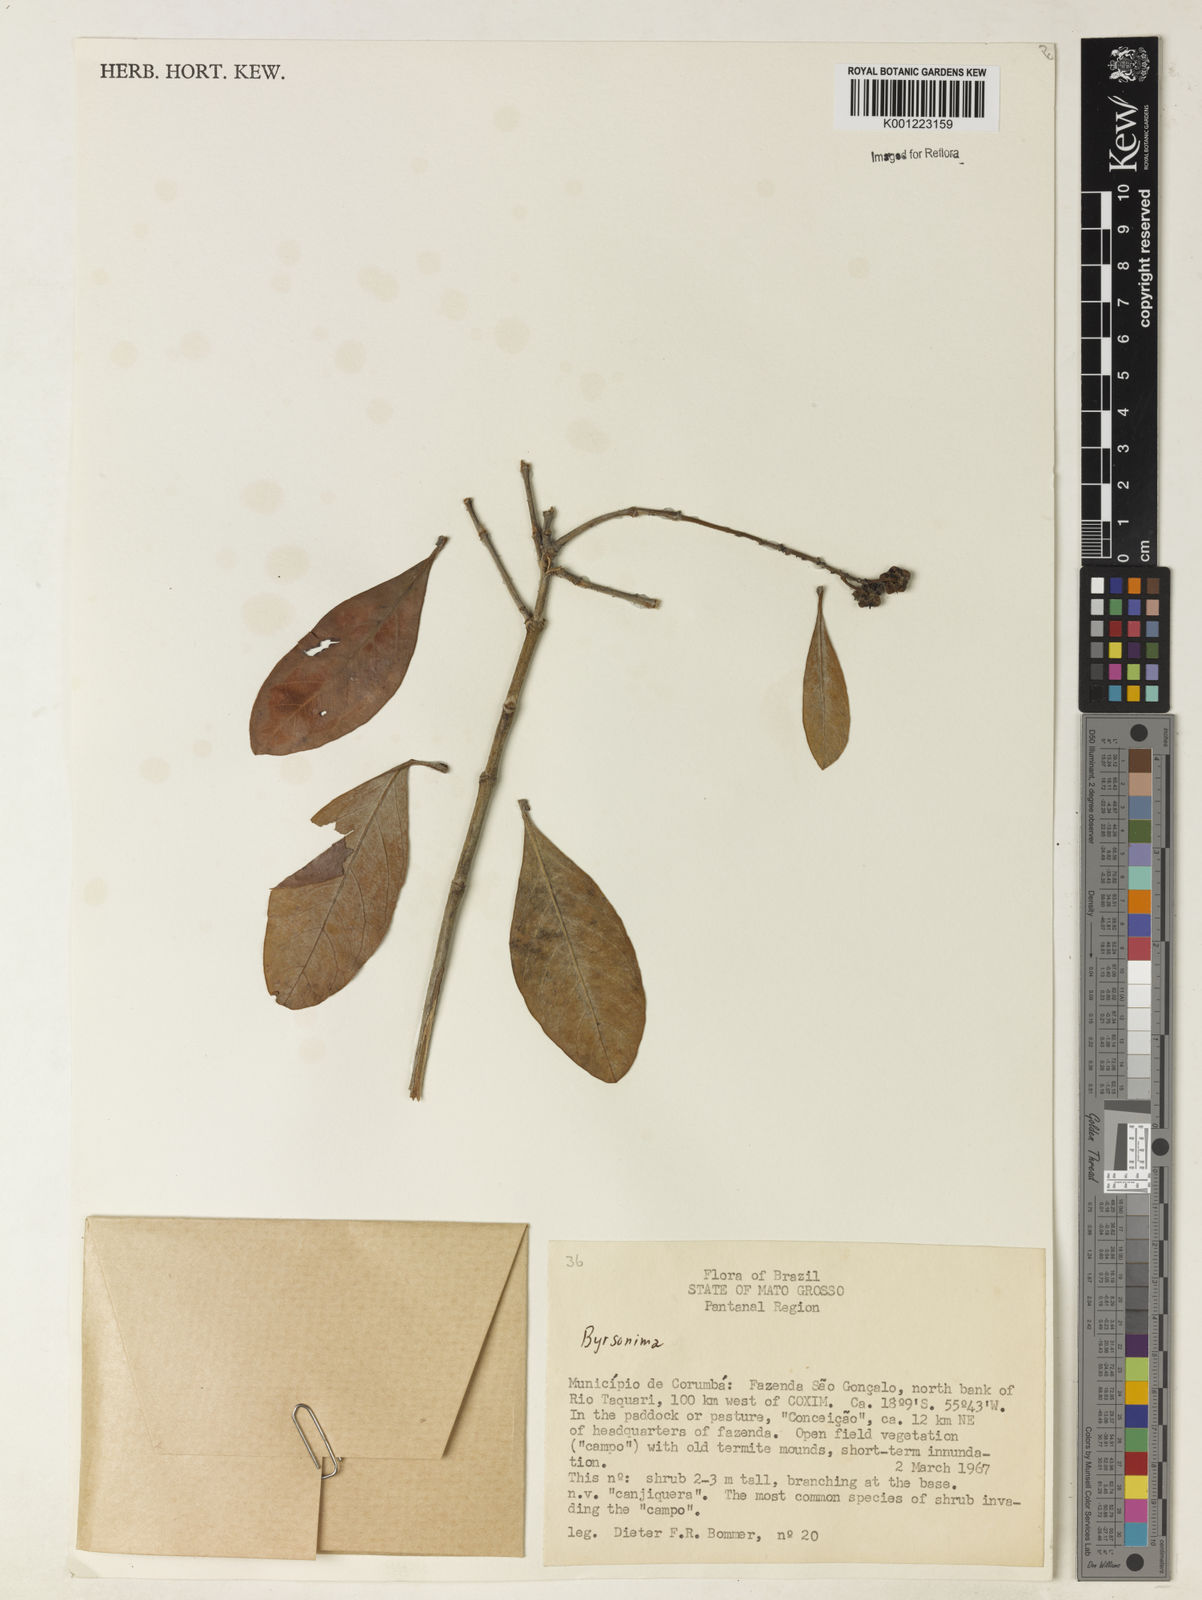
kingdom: Plantae
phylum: Tracheophyta
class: Magnoliopsida
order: Malpighiales
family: Malpighiaceae
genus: Byrsonima
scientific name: Byrsonima
